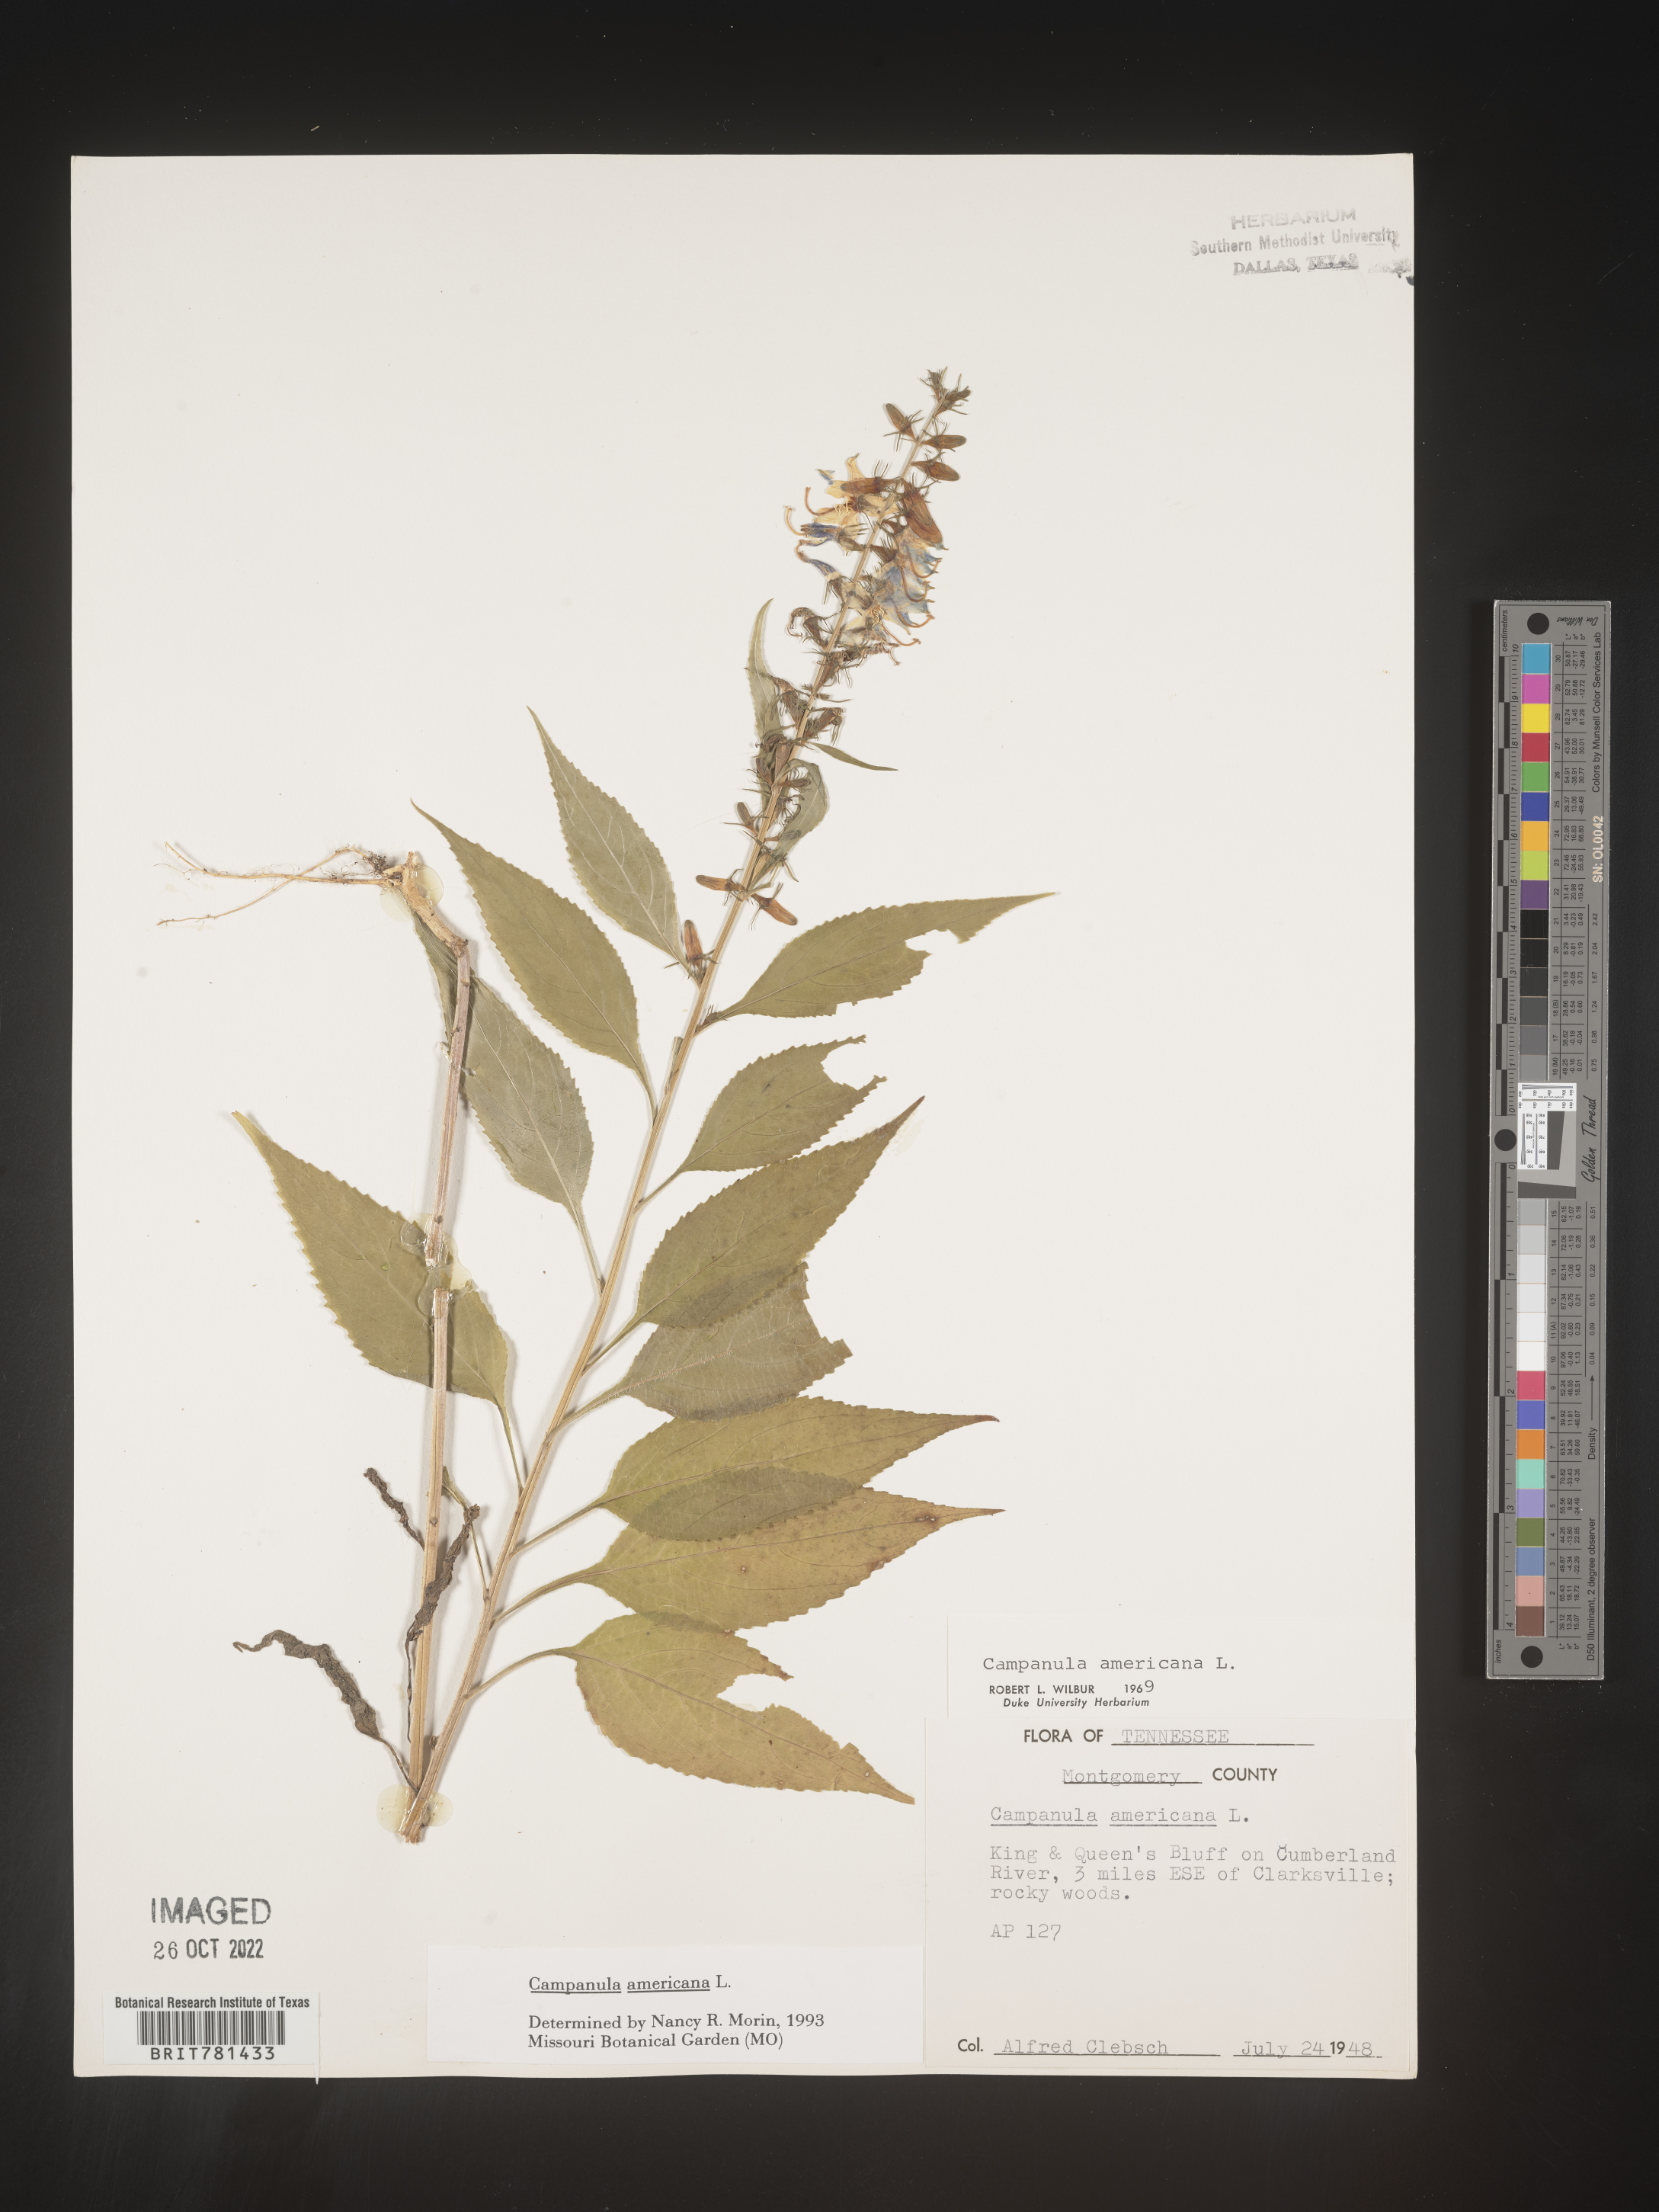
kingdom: Plantae
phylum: Tracheophyta
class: Magnoliopsida
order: Asterales
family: Campanulaceae
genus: Campanula
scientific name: Campanula americana
